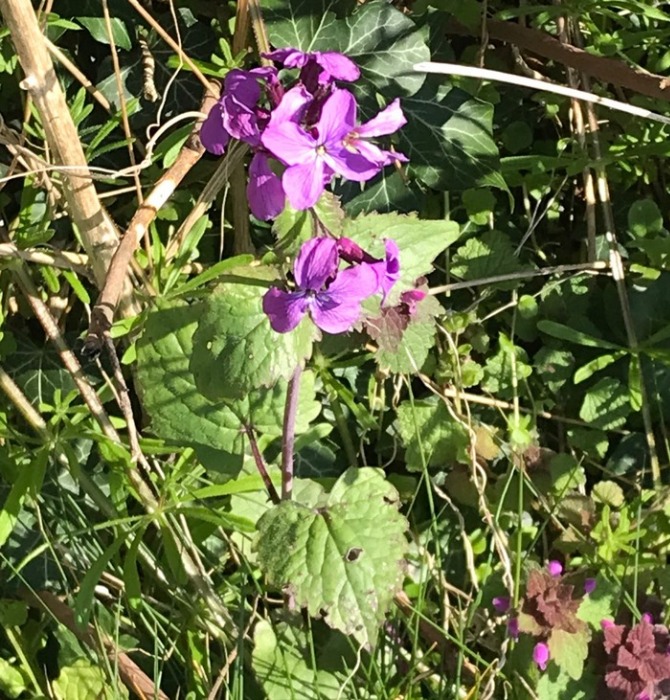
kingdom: Plantae
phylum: Tracheophyta
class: Magnoliopsida
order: Brassicales
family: Brassicaceae
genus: Lunaria
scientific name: Lunaria annua
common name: Judaspenge
